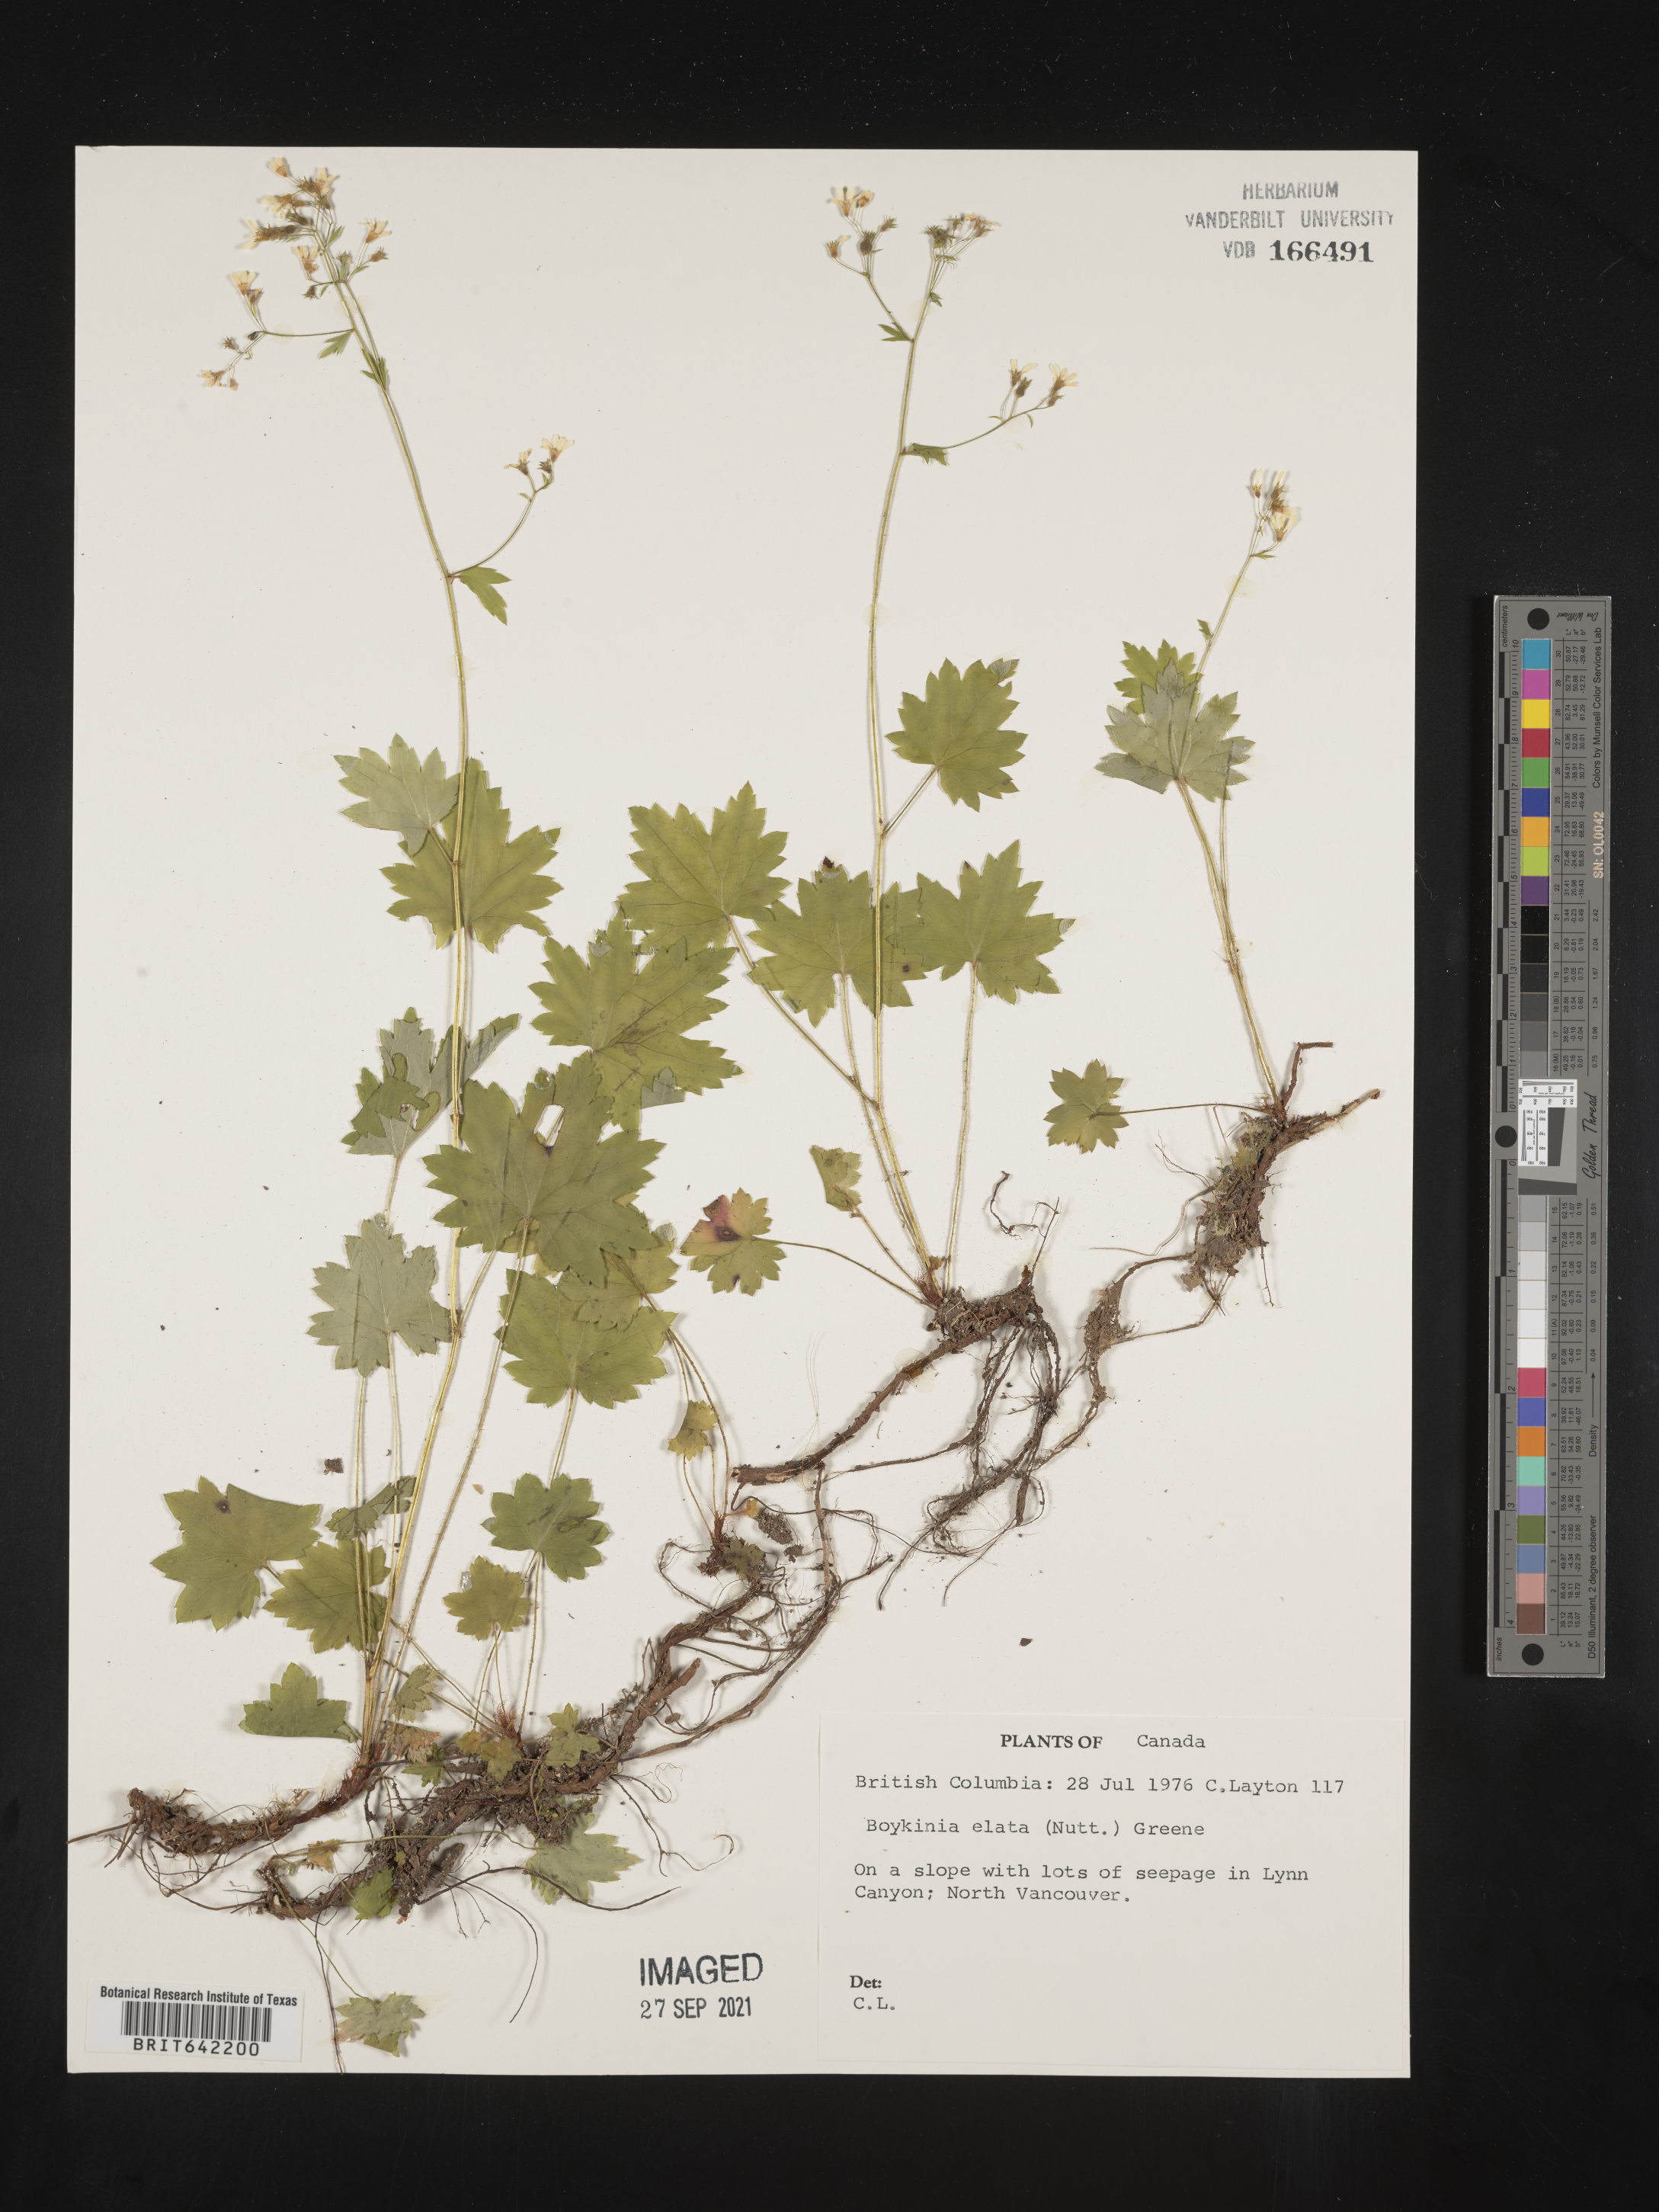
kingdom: Plantae
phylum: Tracheophyta
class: Magnoliopsida
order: Saxifragales
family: Saxifragaceae
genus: Boykinia
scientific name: Boykinia
